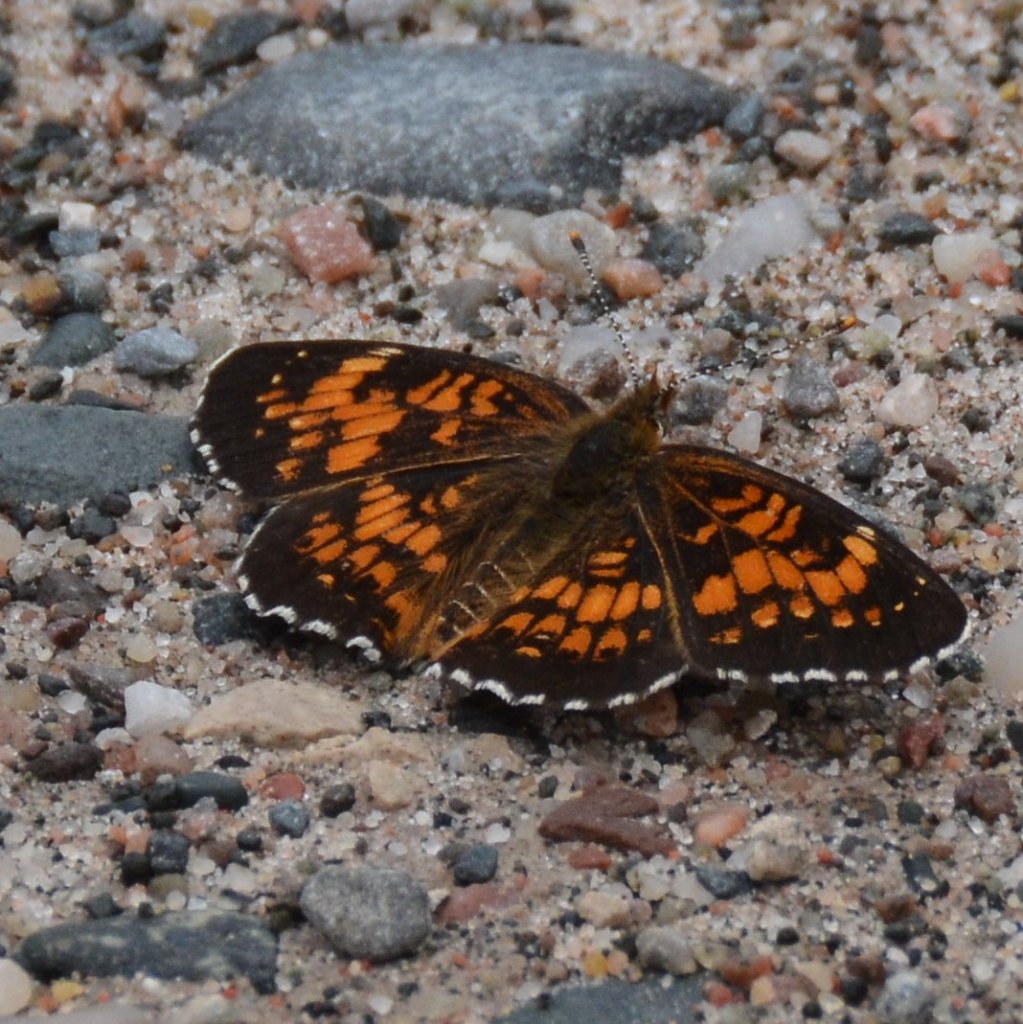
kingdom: Animalia
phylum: Arthropoda
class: Insecta
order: Lepidoptera
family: Nymphalidae
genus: Chlosyne
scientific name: Chlosyne harrisii
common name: Harris's Checkerspot
